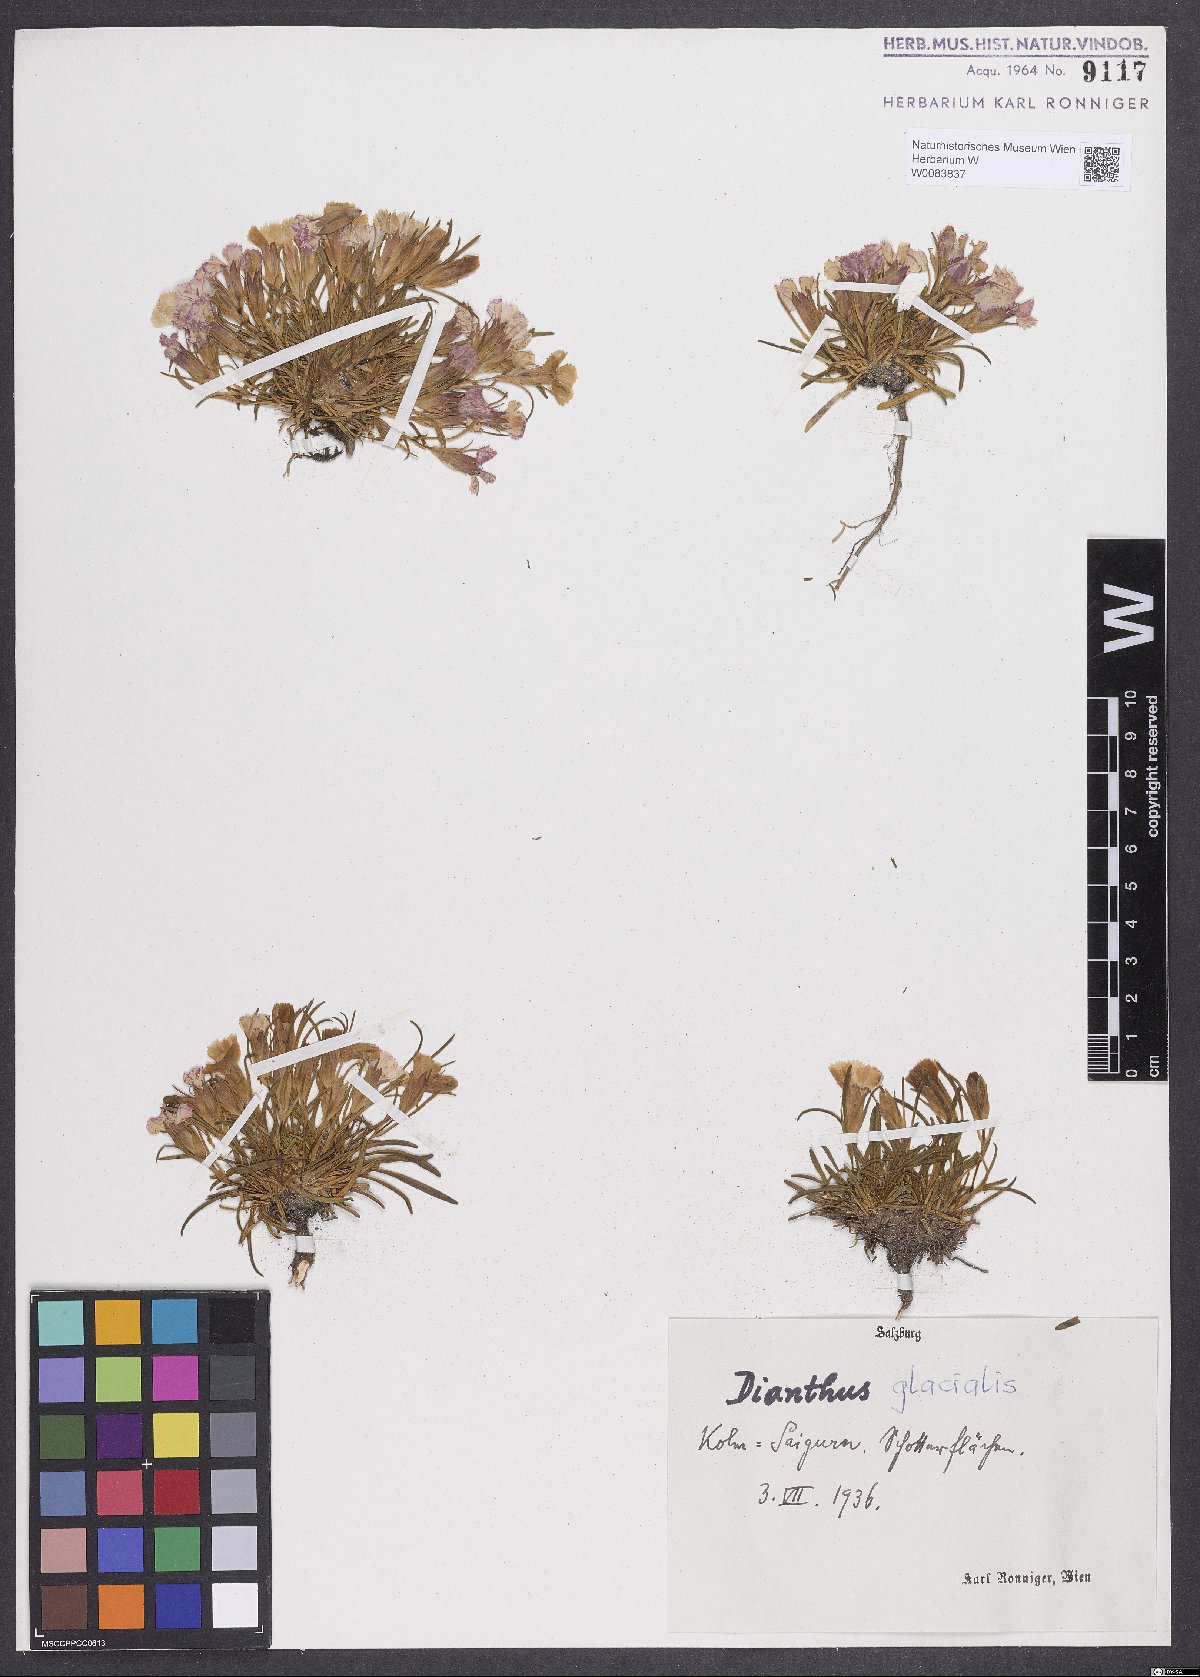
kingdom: Plantae
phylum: Tracheophyta
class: Magnoliopsida
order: Caryophyllales
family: Caryophyllaceae
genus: Dianthus
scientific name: Dianthus glacialis
